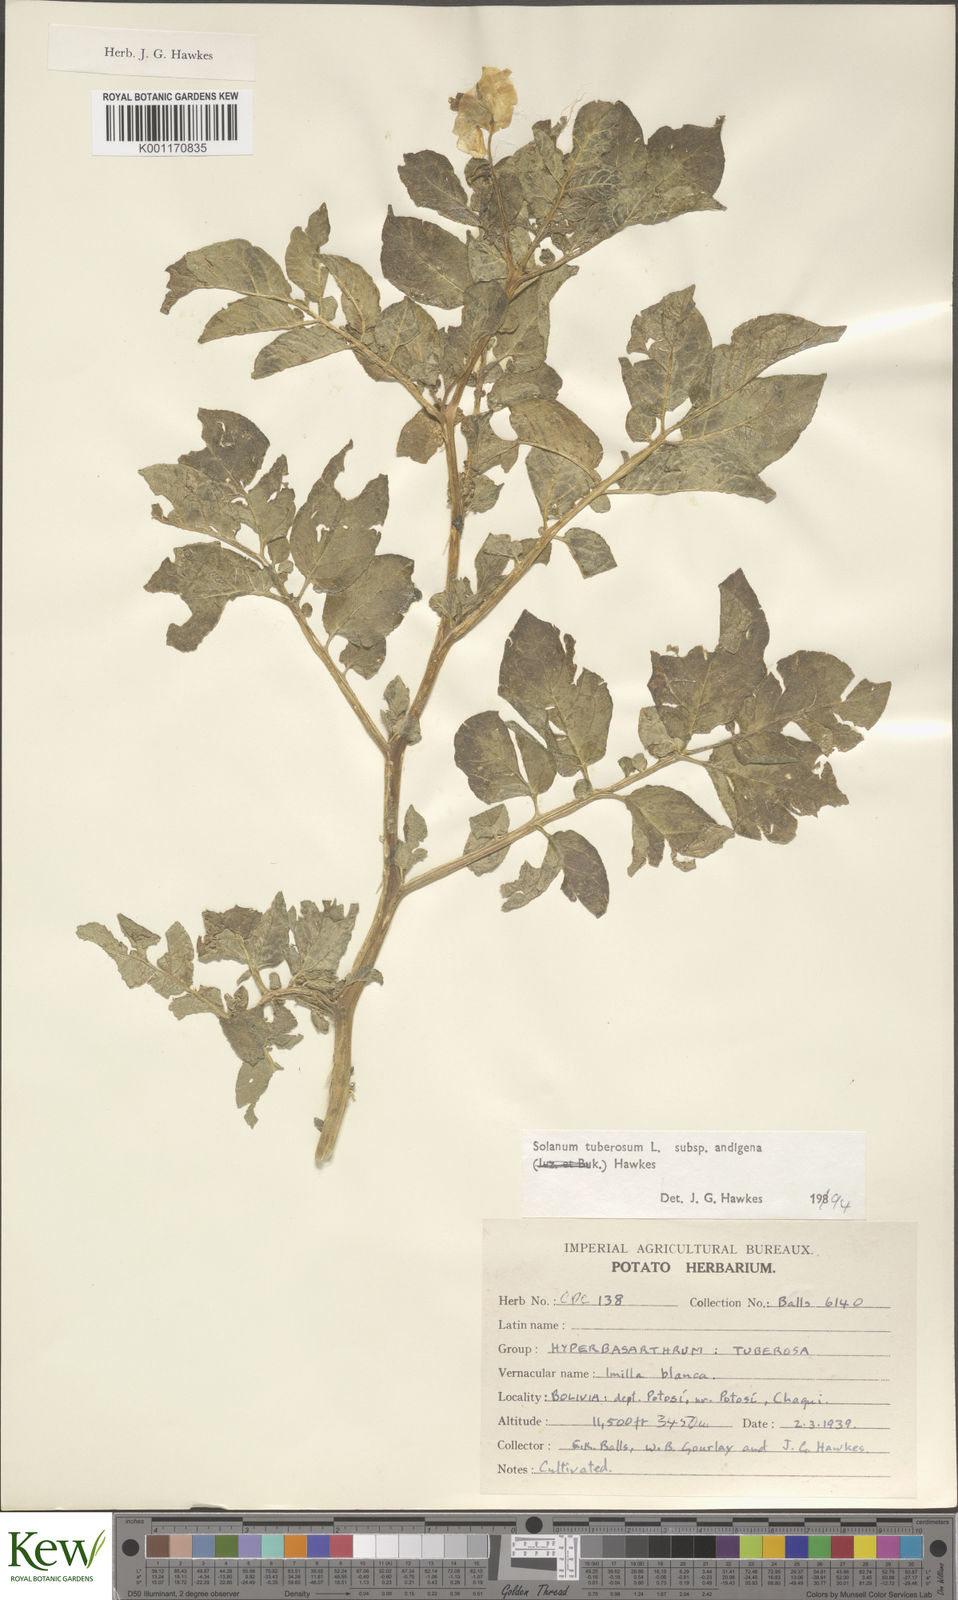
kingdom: Plantae
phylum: Tracheophyta
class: Magnoliopsida
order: Solanales
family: Solanaceae
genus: Solanum
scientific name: Solanum tuberosum
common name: Potato
